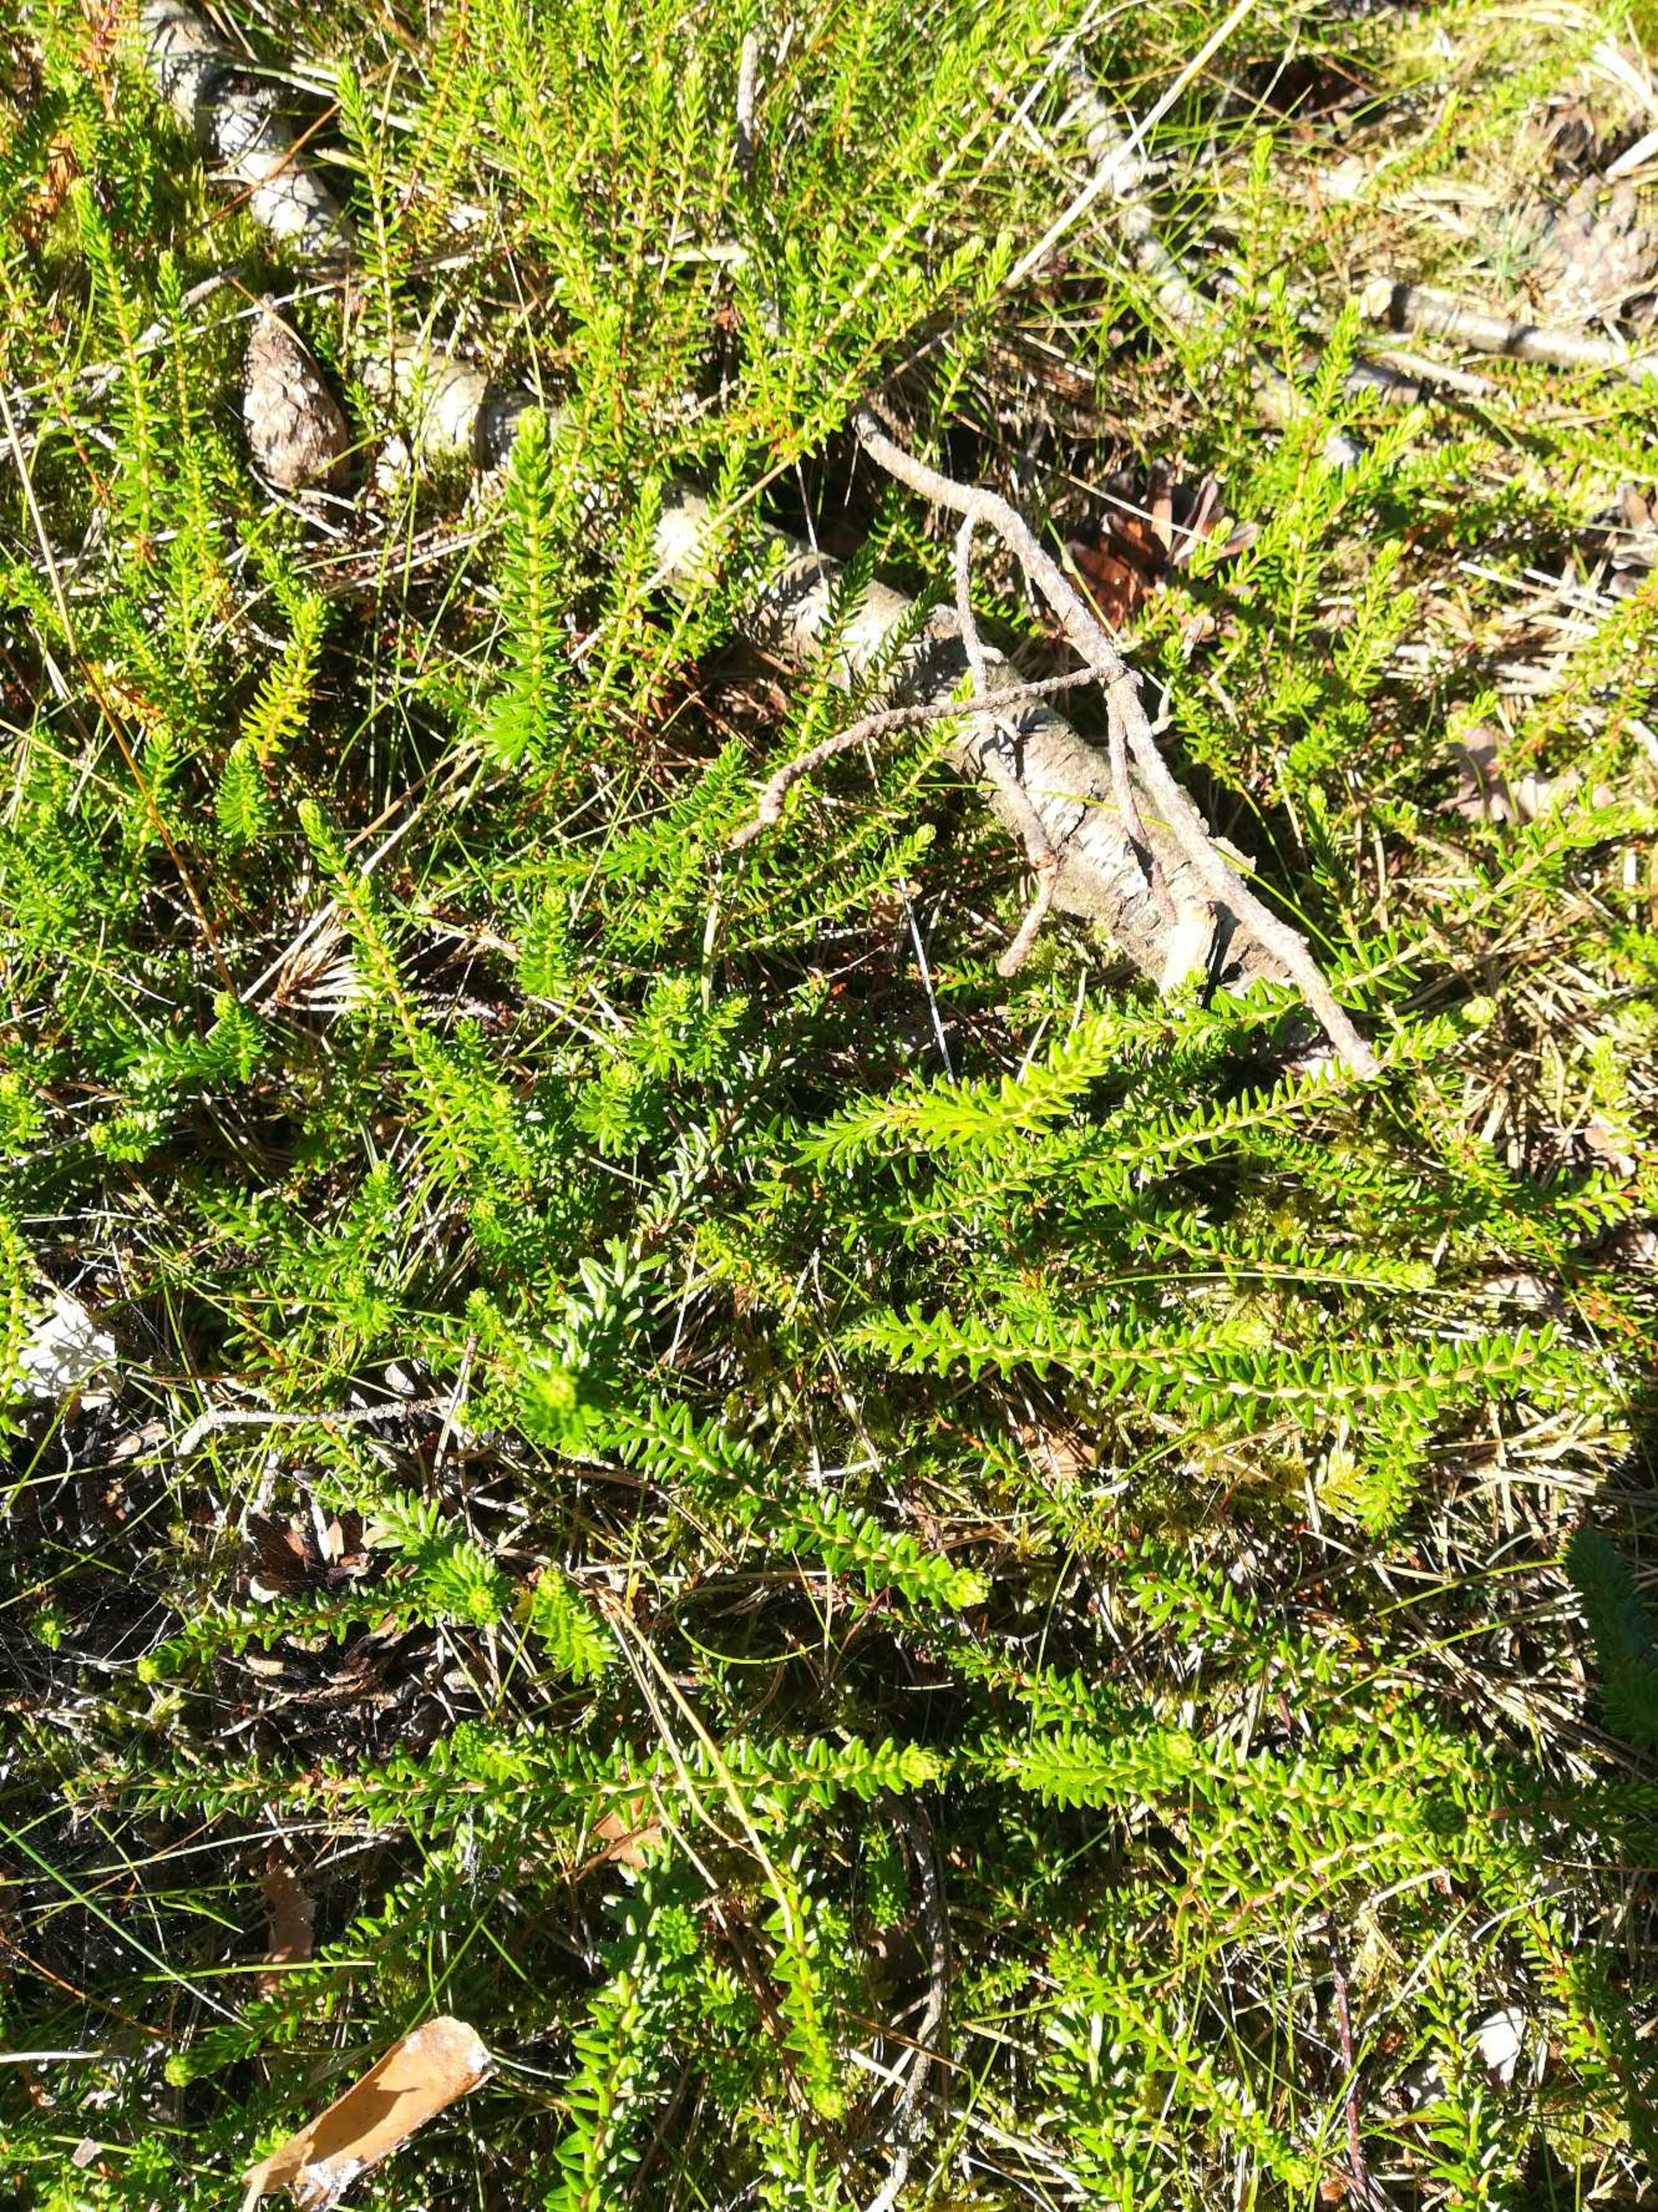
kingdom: Plantae
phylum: Tracheophyta
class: Magnoliopsida
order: Ericales
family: Ericaceae
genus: Empetrum
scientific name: Empetrum nigrum
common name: Revling
